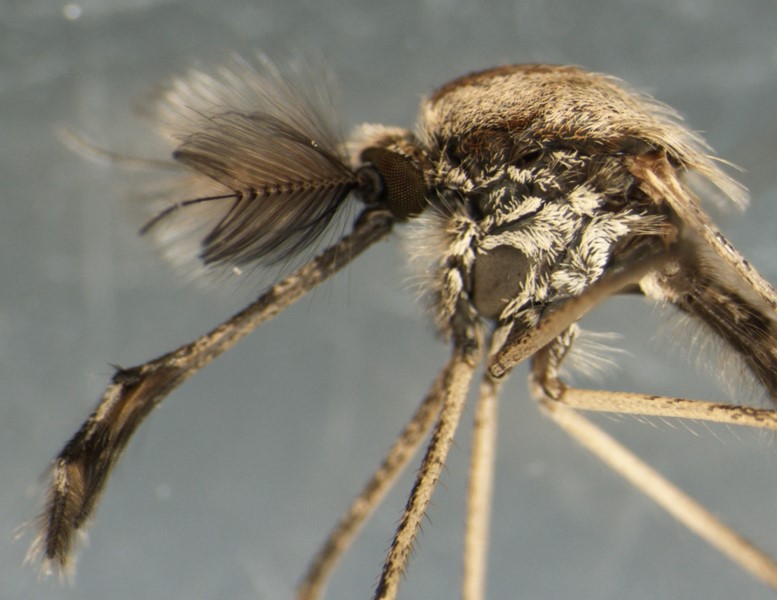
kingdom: Animalia
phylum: Arthropoda
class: Insecta
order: Diptera
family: Culicidae
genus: Aedes
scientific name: Aedes dorsalis
